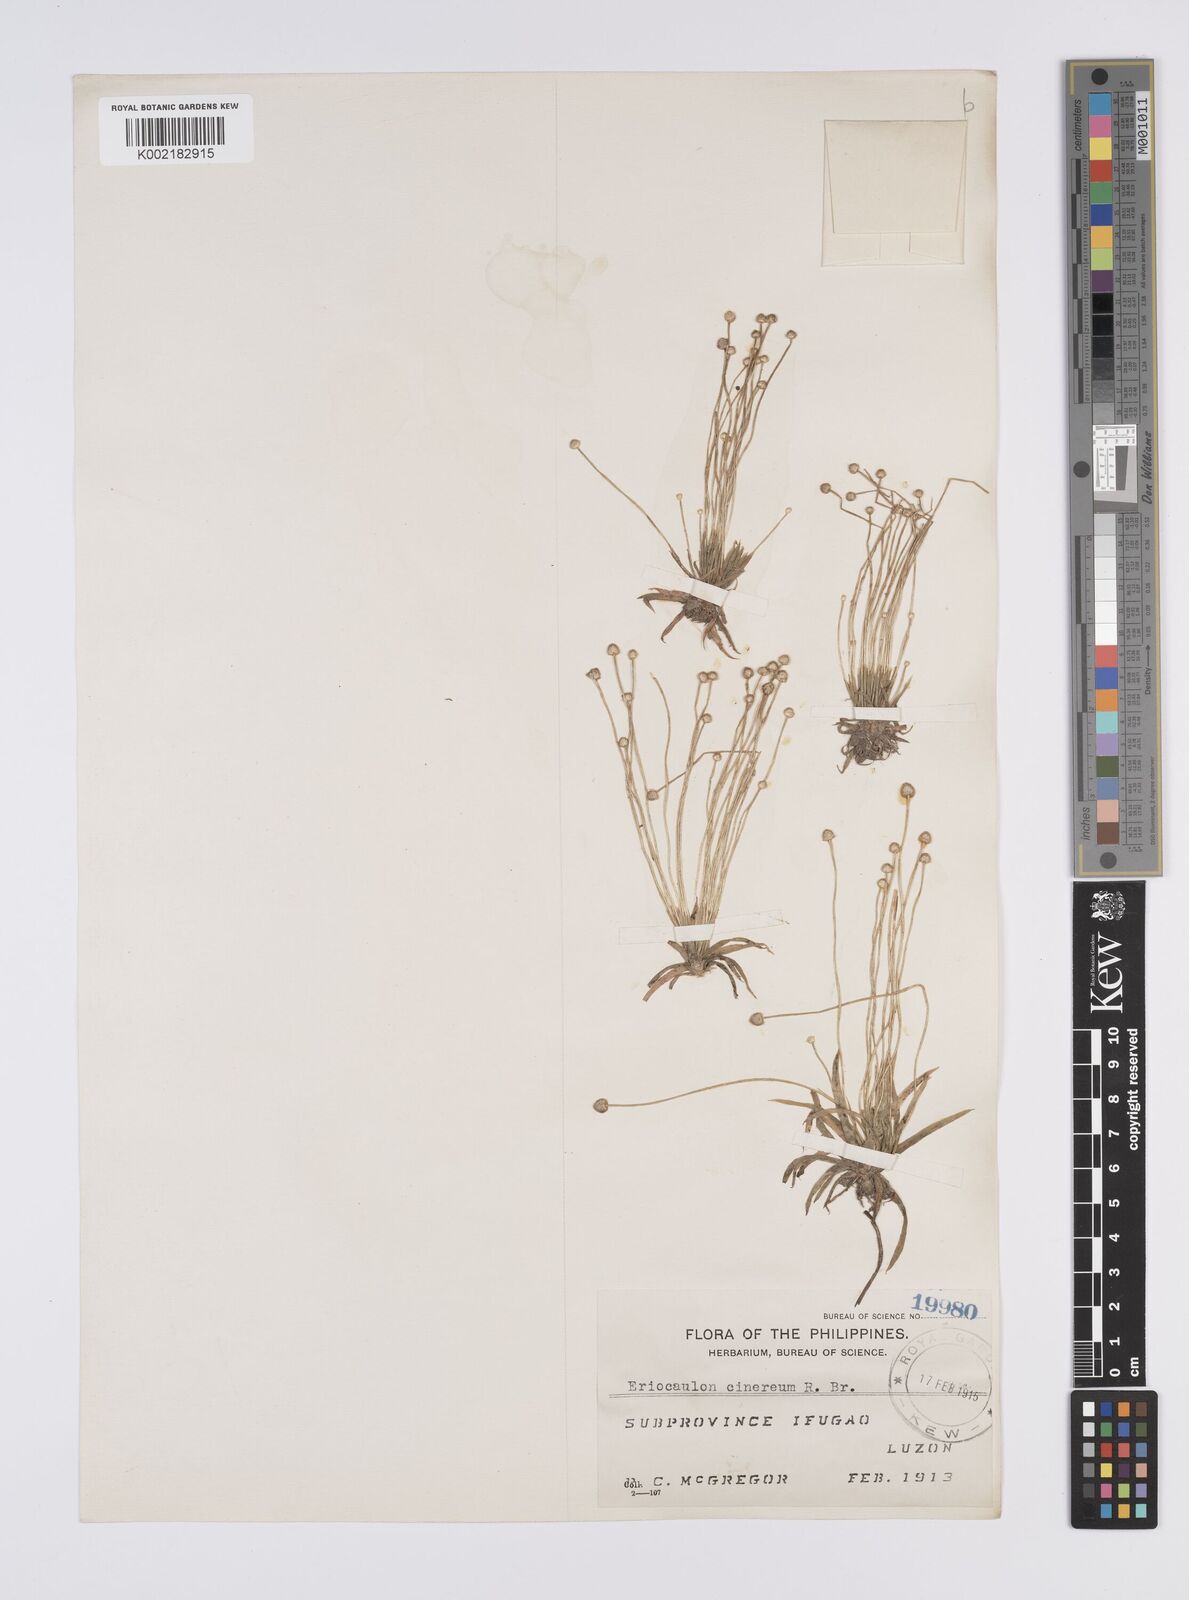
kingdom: Plantae
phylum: Tracheophyta
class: Liliopsida
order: Poales
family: Eriocaulaceae
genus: Eriocaulon
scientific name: Eriocaulon cinereum
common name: Ashy pipewort
